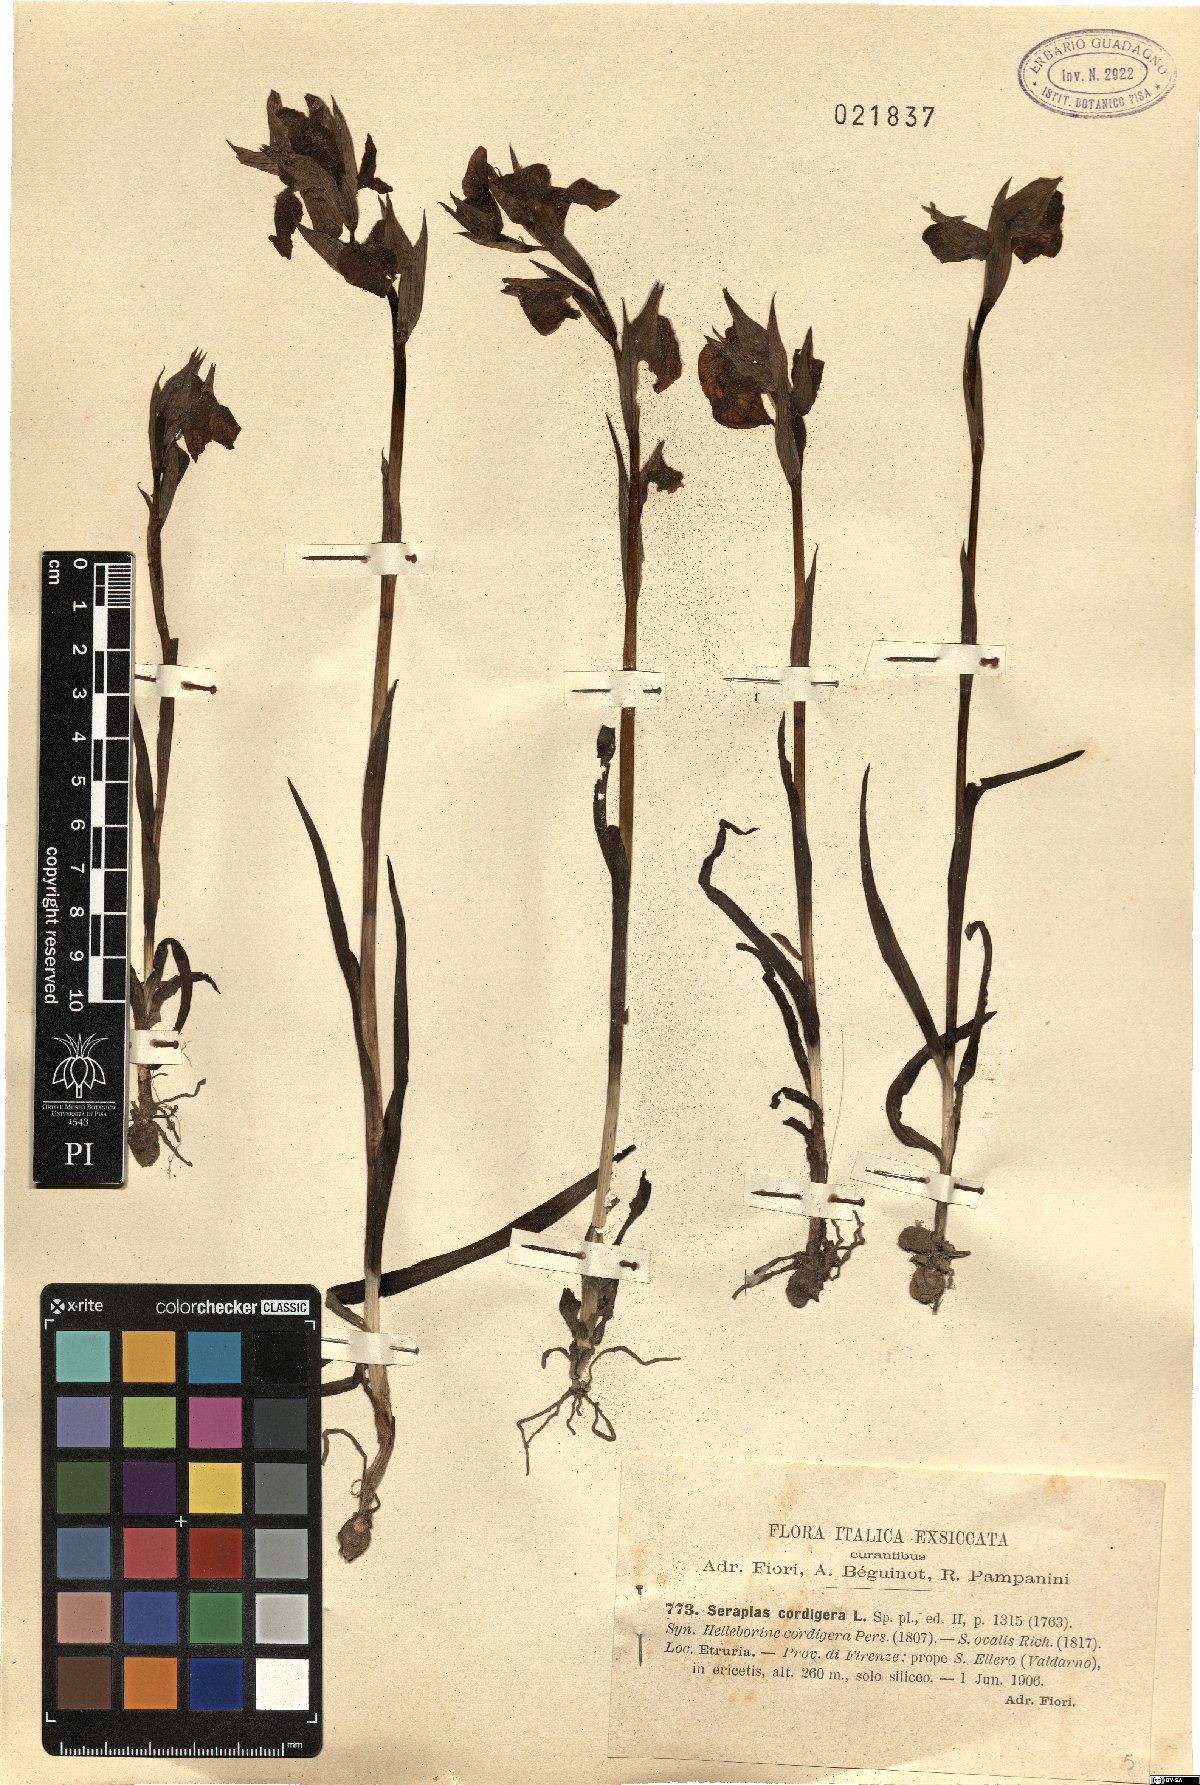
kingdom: Plantae
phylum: Tracheophyta
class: Liliopsida
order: Asparagales
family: Orchidaceae
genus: Serapias
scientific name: Serapias cordigera
